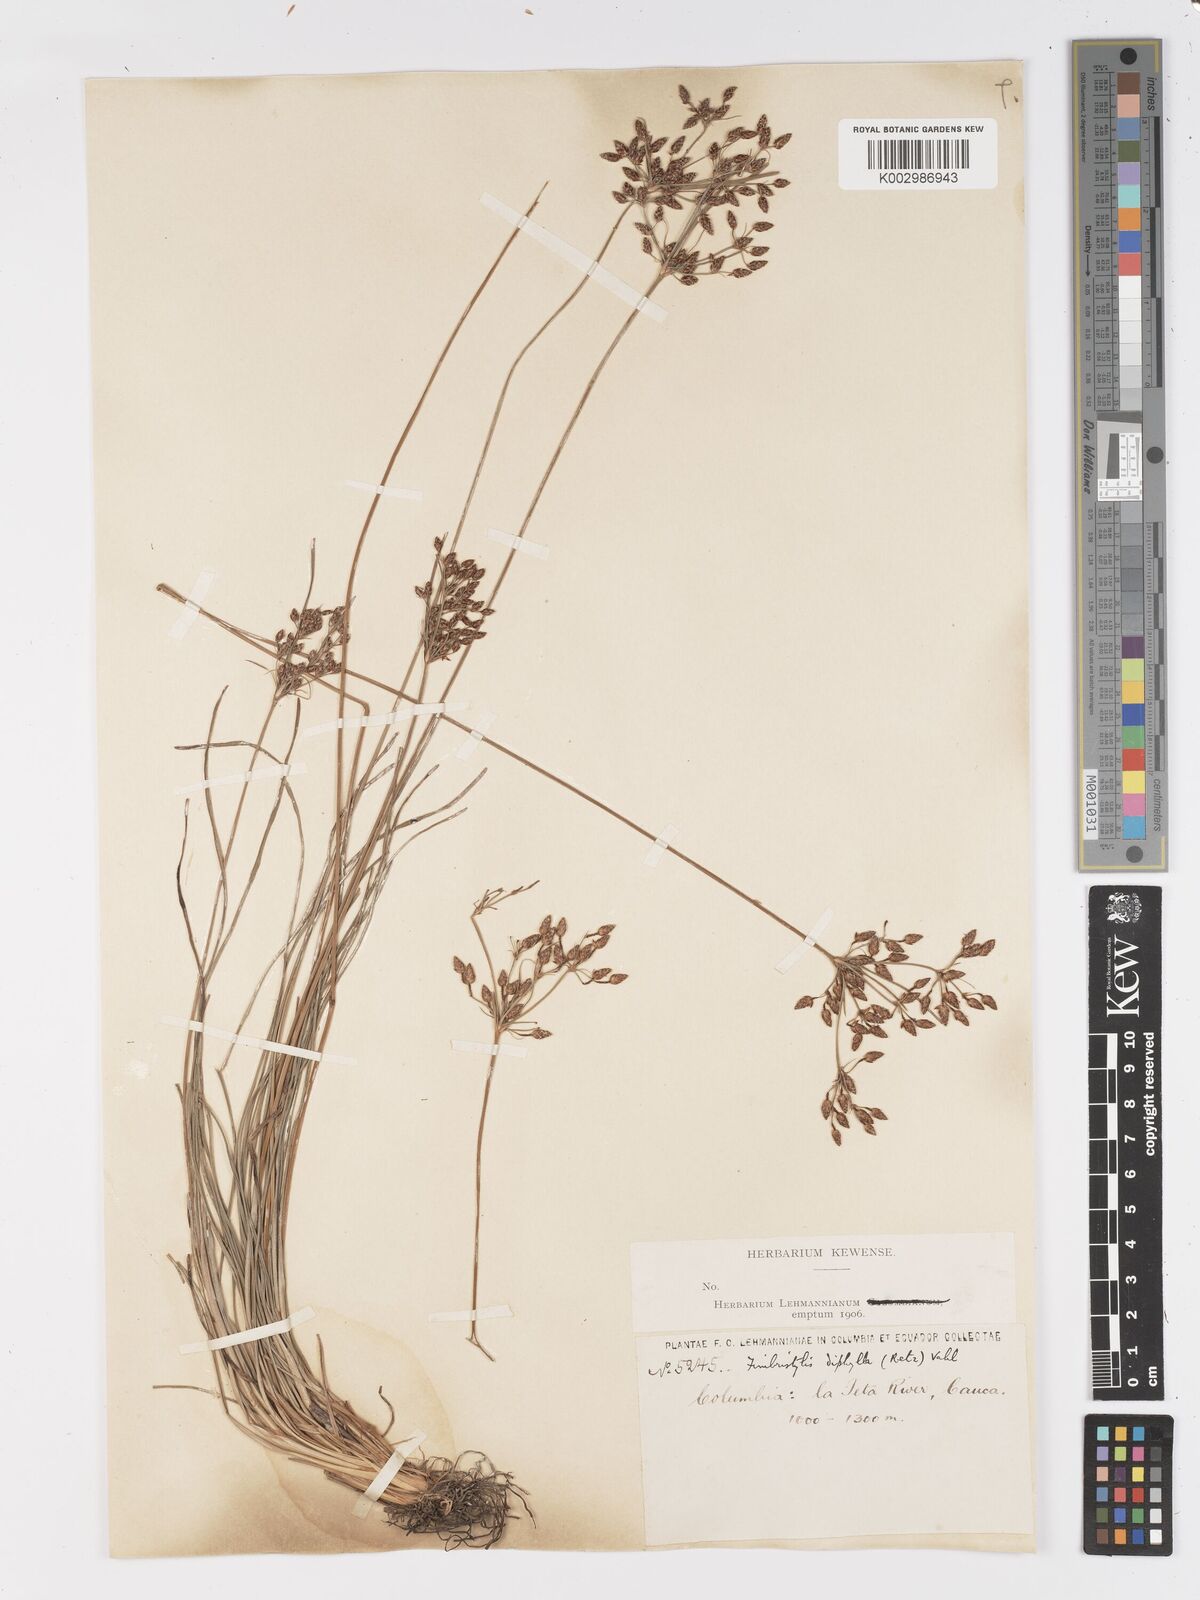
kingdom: Plantae
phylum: Tracheophyta
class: Liliopsida
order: Poales
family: Cyperaceae
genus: Fimbristylis
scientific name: Fimbristylis dichotoma
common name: Forked fimbry
